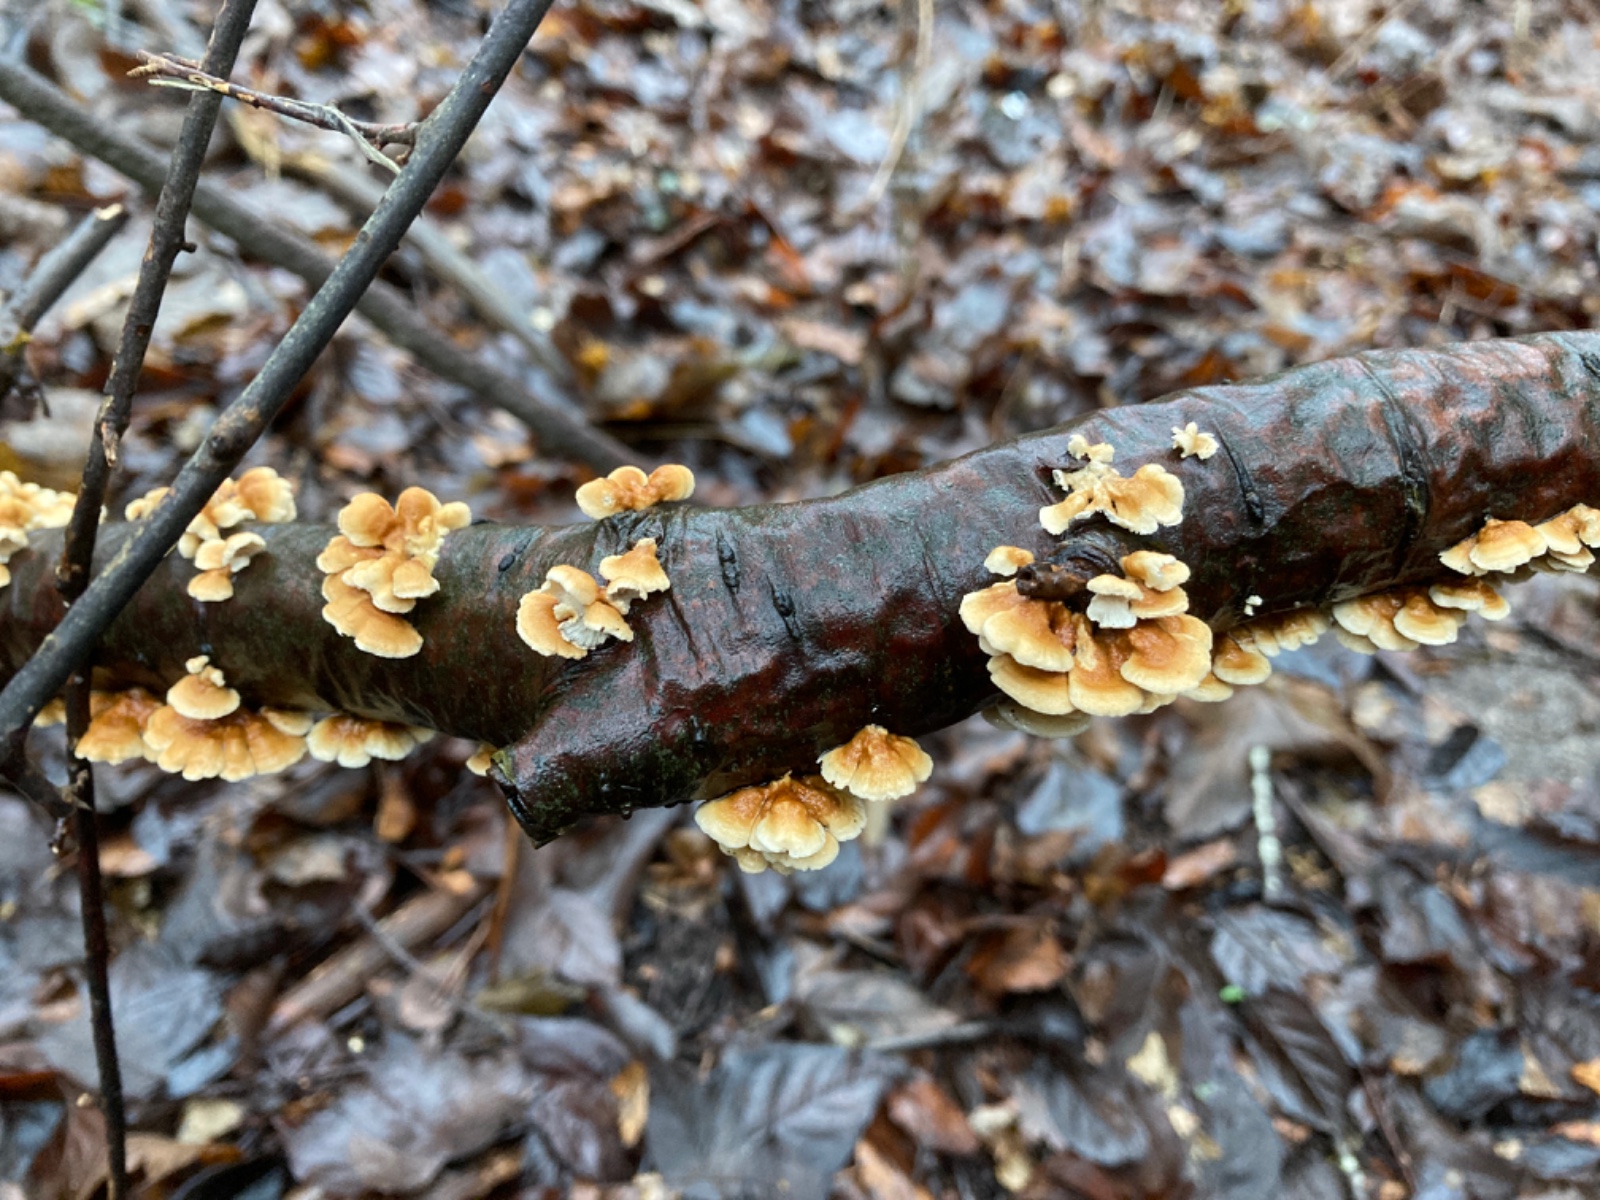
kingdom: Fungi
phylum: Basidiomycota
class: Agaricomycetes
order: Amylocorticiales
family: Amylocorticiaceae
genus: Plicaturopsis
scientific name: Plicaturopsis crispa
